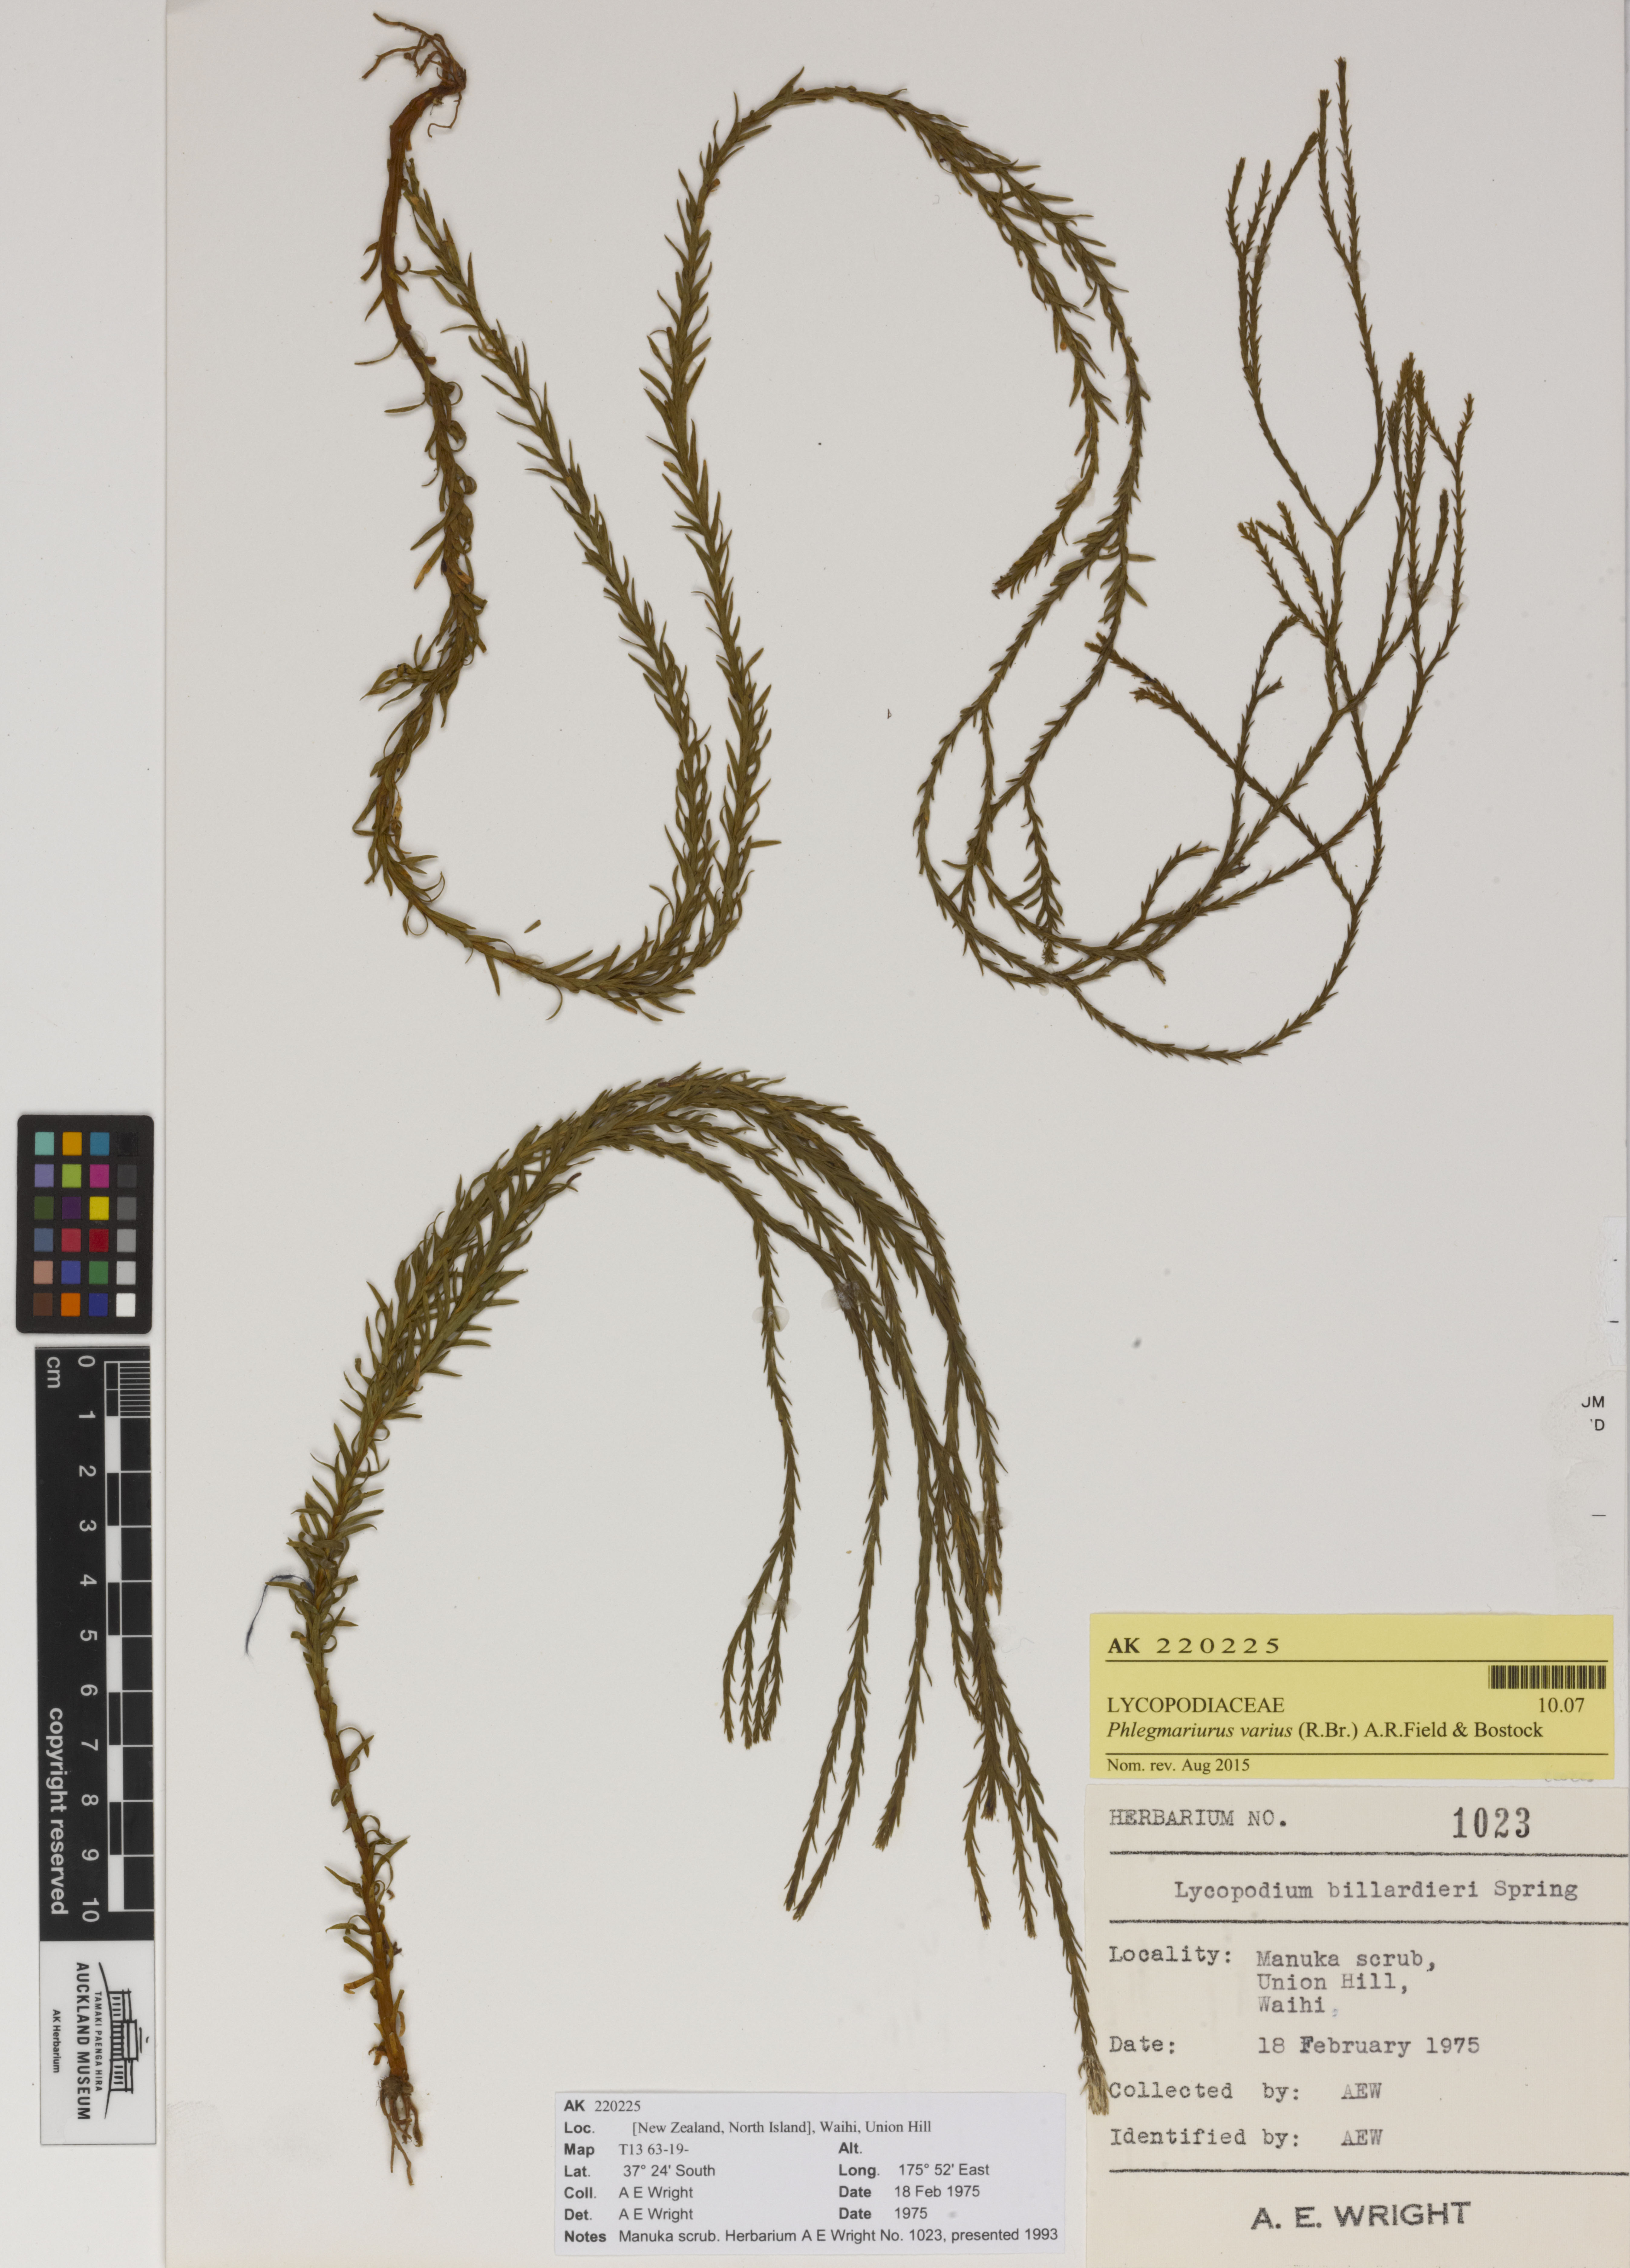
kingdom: Plantae
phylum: Tracheophyta
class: Lycopodiopsida
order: Lycopodiales
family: Lycopodiaceae
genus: Phlegmariurus
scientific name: Phlegmariurus billardierei
